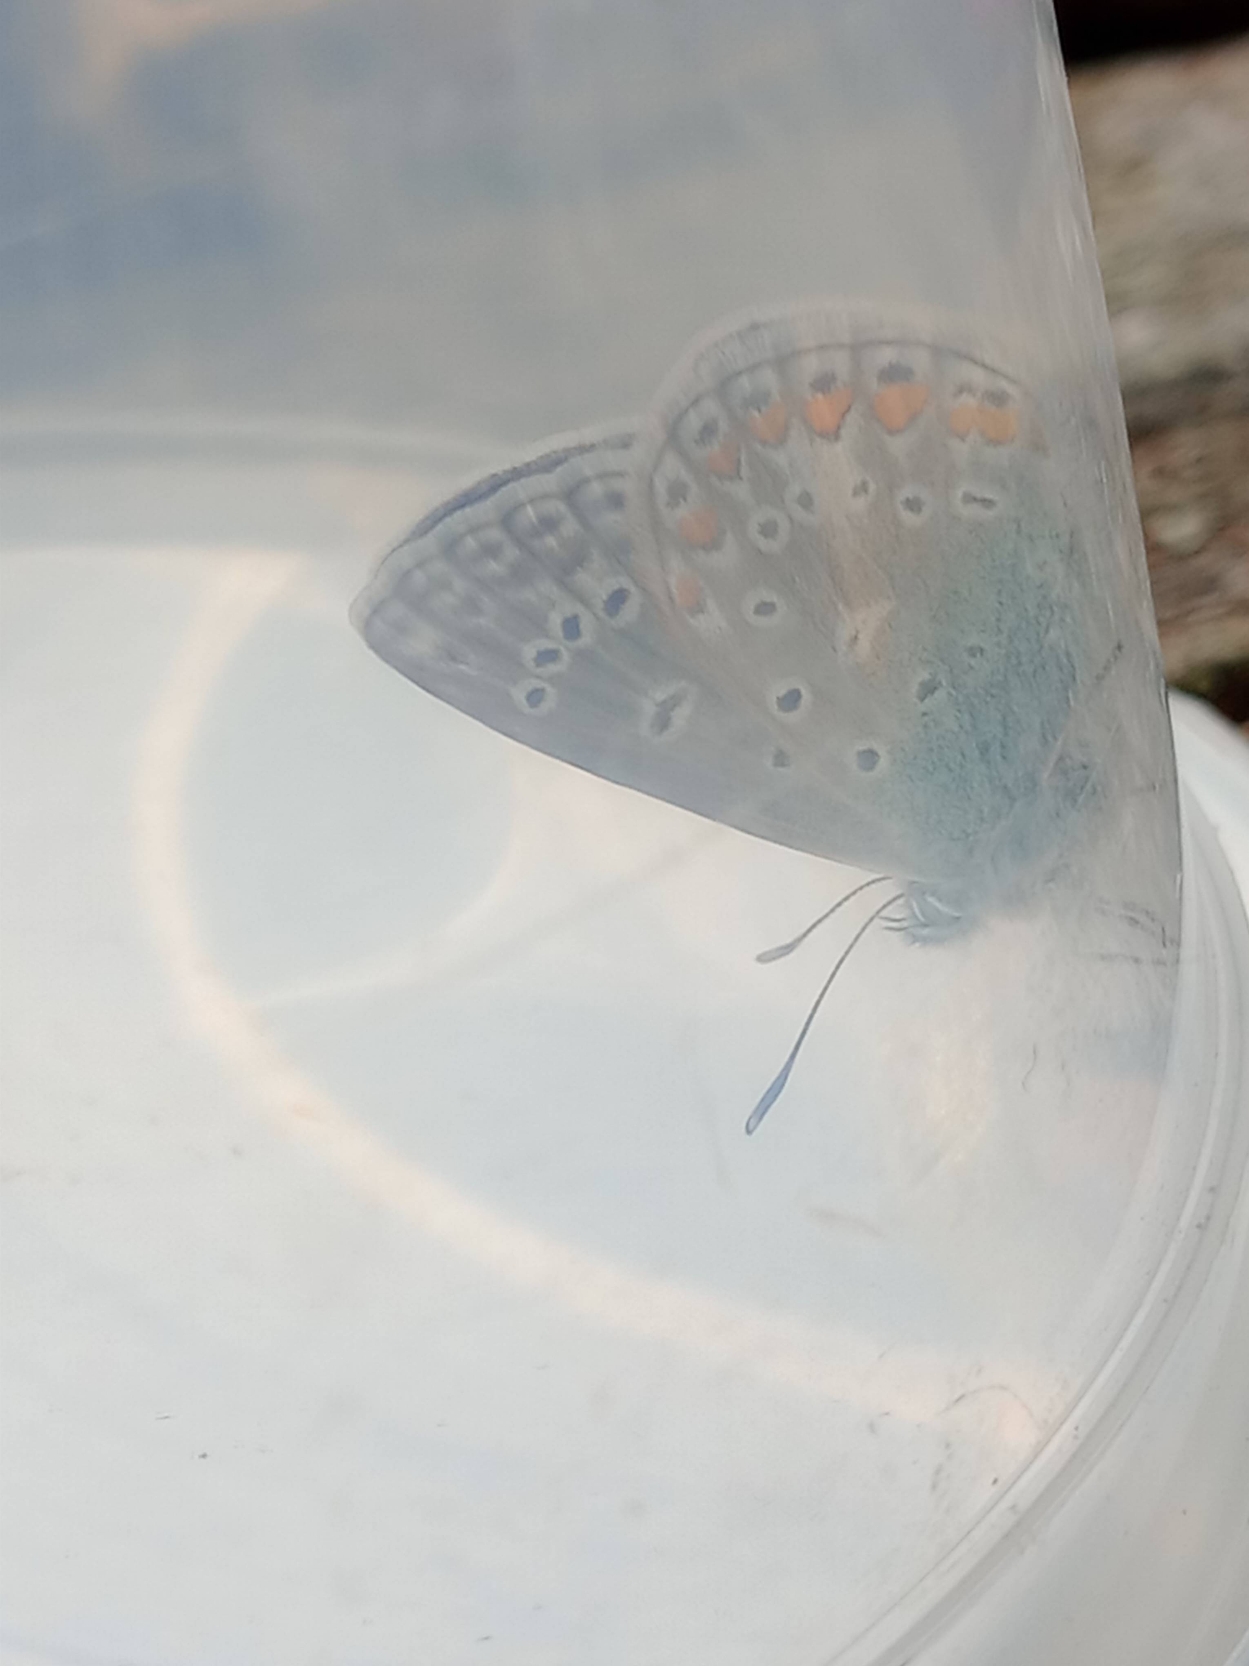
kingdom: Animalia
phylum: Arthropoda
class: Insecta
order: Lepidoptera
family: Lycaenidae
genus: Polyommatus
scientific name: Polyommatus icarus
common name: Almindelig blåfugl
